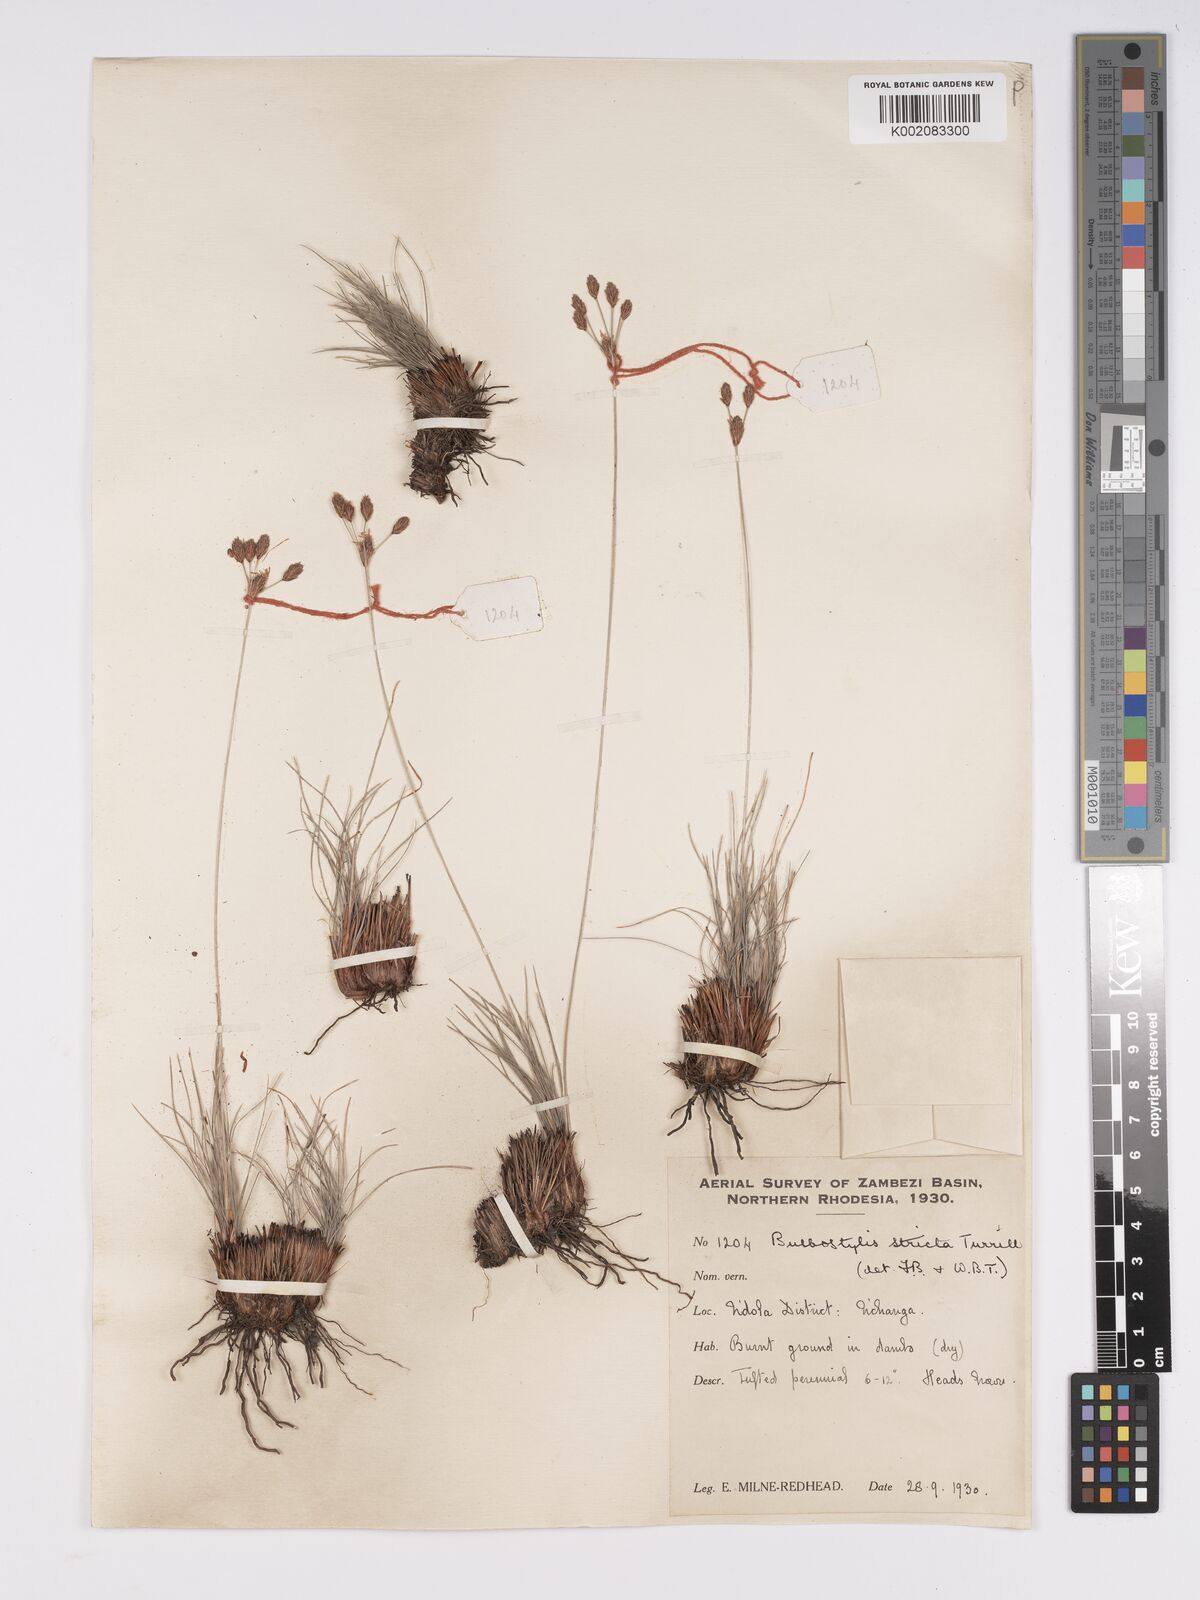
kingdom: Plantae
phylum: Tracheophyta
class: Liliopsida
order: Poales
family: Cyperaceae
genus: Bulbostylis
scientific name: Bulbostylis schoenoides
